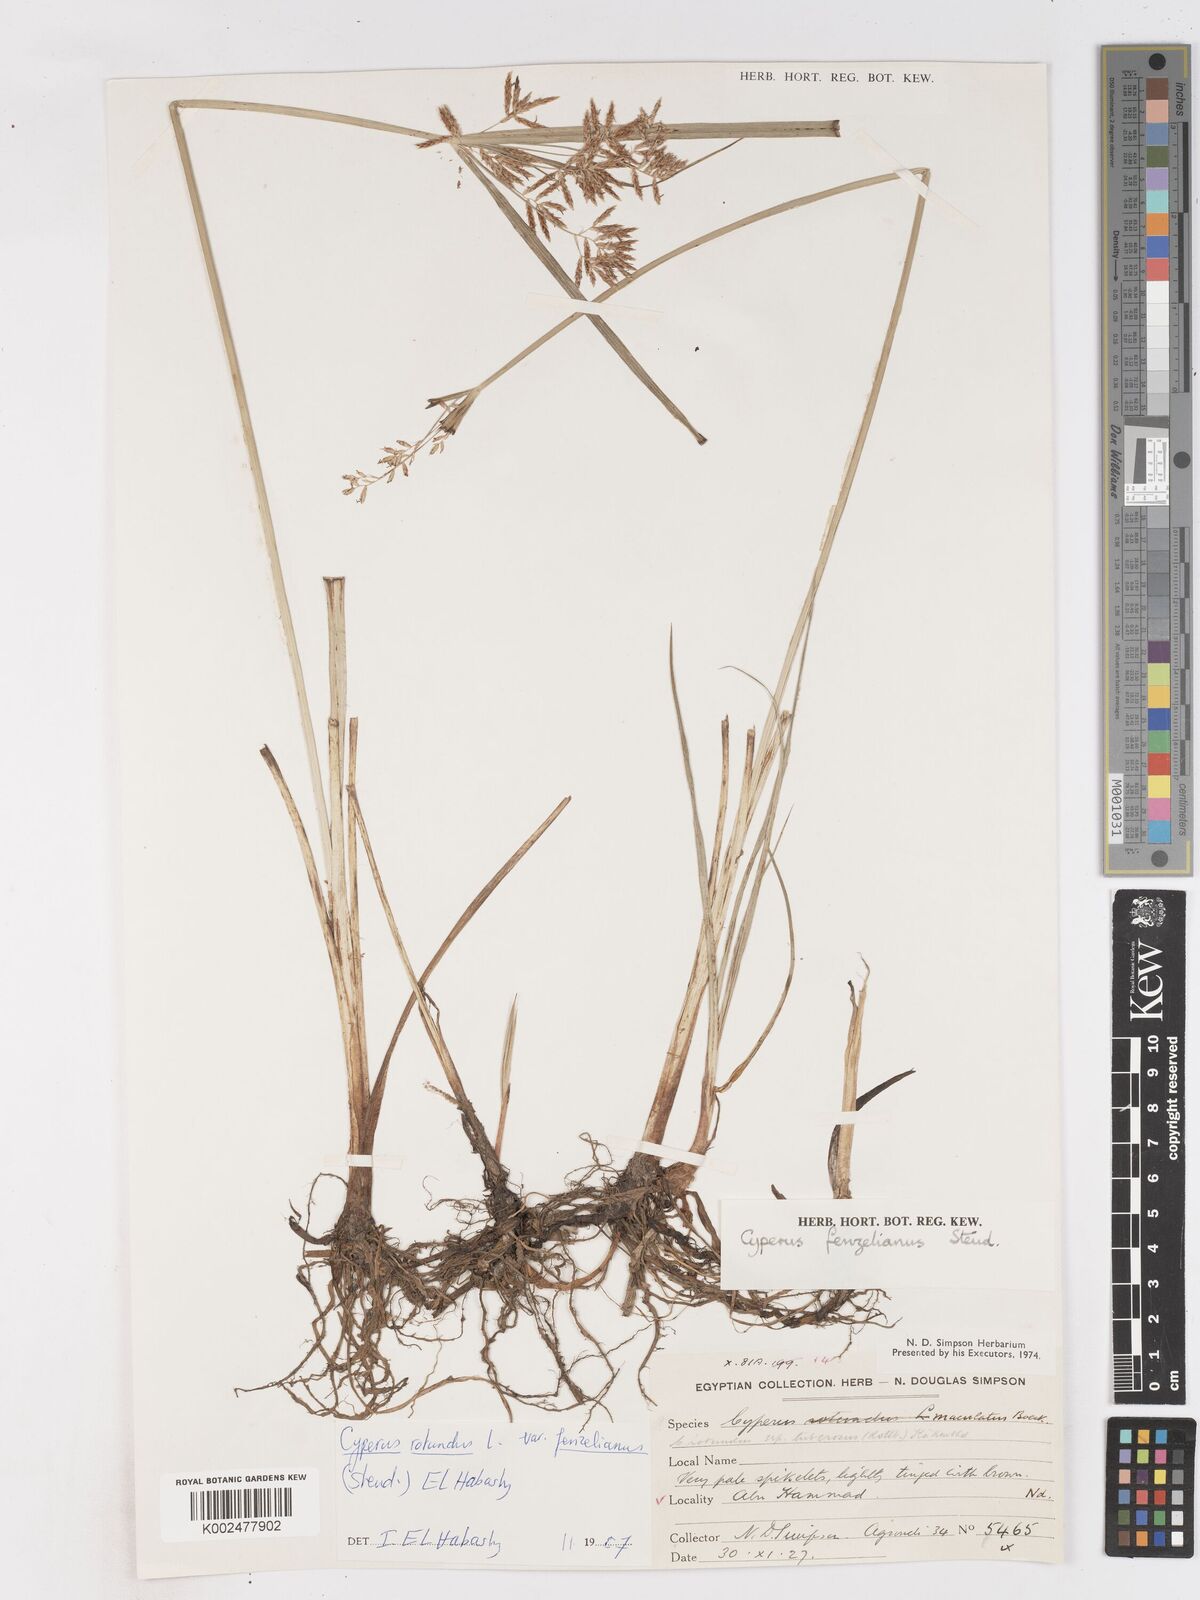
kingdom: Plantae
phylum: Tracheophyta
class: Liliopsida
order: Poales
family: Cyperaceae
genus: Cyperus
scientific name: Cyperus longus
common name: Galingale
